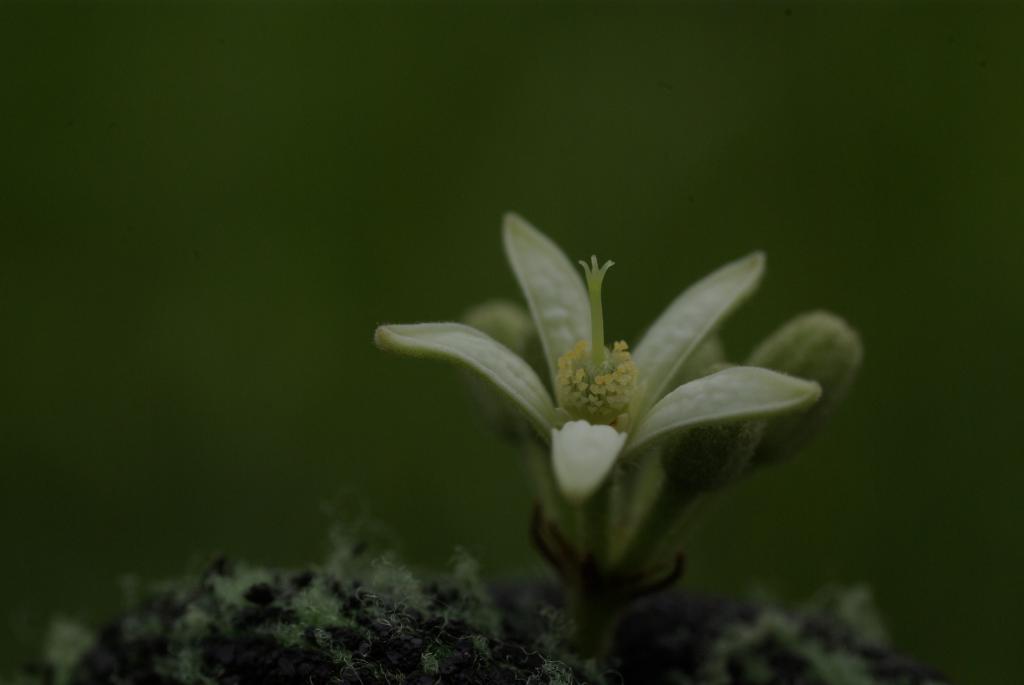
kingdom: Plantae
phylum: Tracheophyta
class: Magnoliopsida
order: Malvales
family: Malvaceae
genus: Grewia
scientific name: Grewia piscatorum
